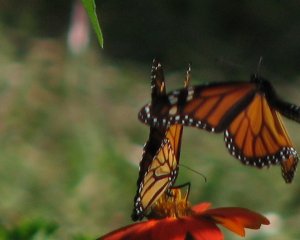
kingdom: Animalia
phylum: Arthropoda
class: Insecta
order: Lepidoptera
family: Nymphalidae
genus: Danaus
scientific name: Danaus plexippus
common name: Monarch
